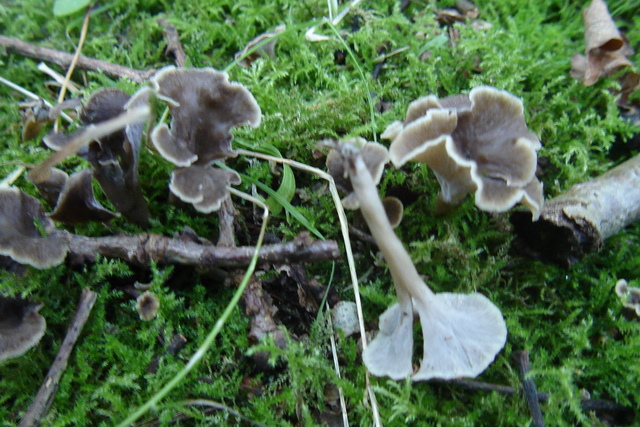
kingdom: Fungi
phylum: Basidiomycota
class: Agaricomycetes
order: Cantharellales
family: Hydnaceae
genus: Craterellus
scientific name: Craterellus undulatus
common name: liden kantarel
